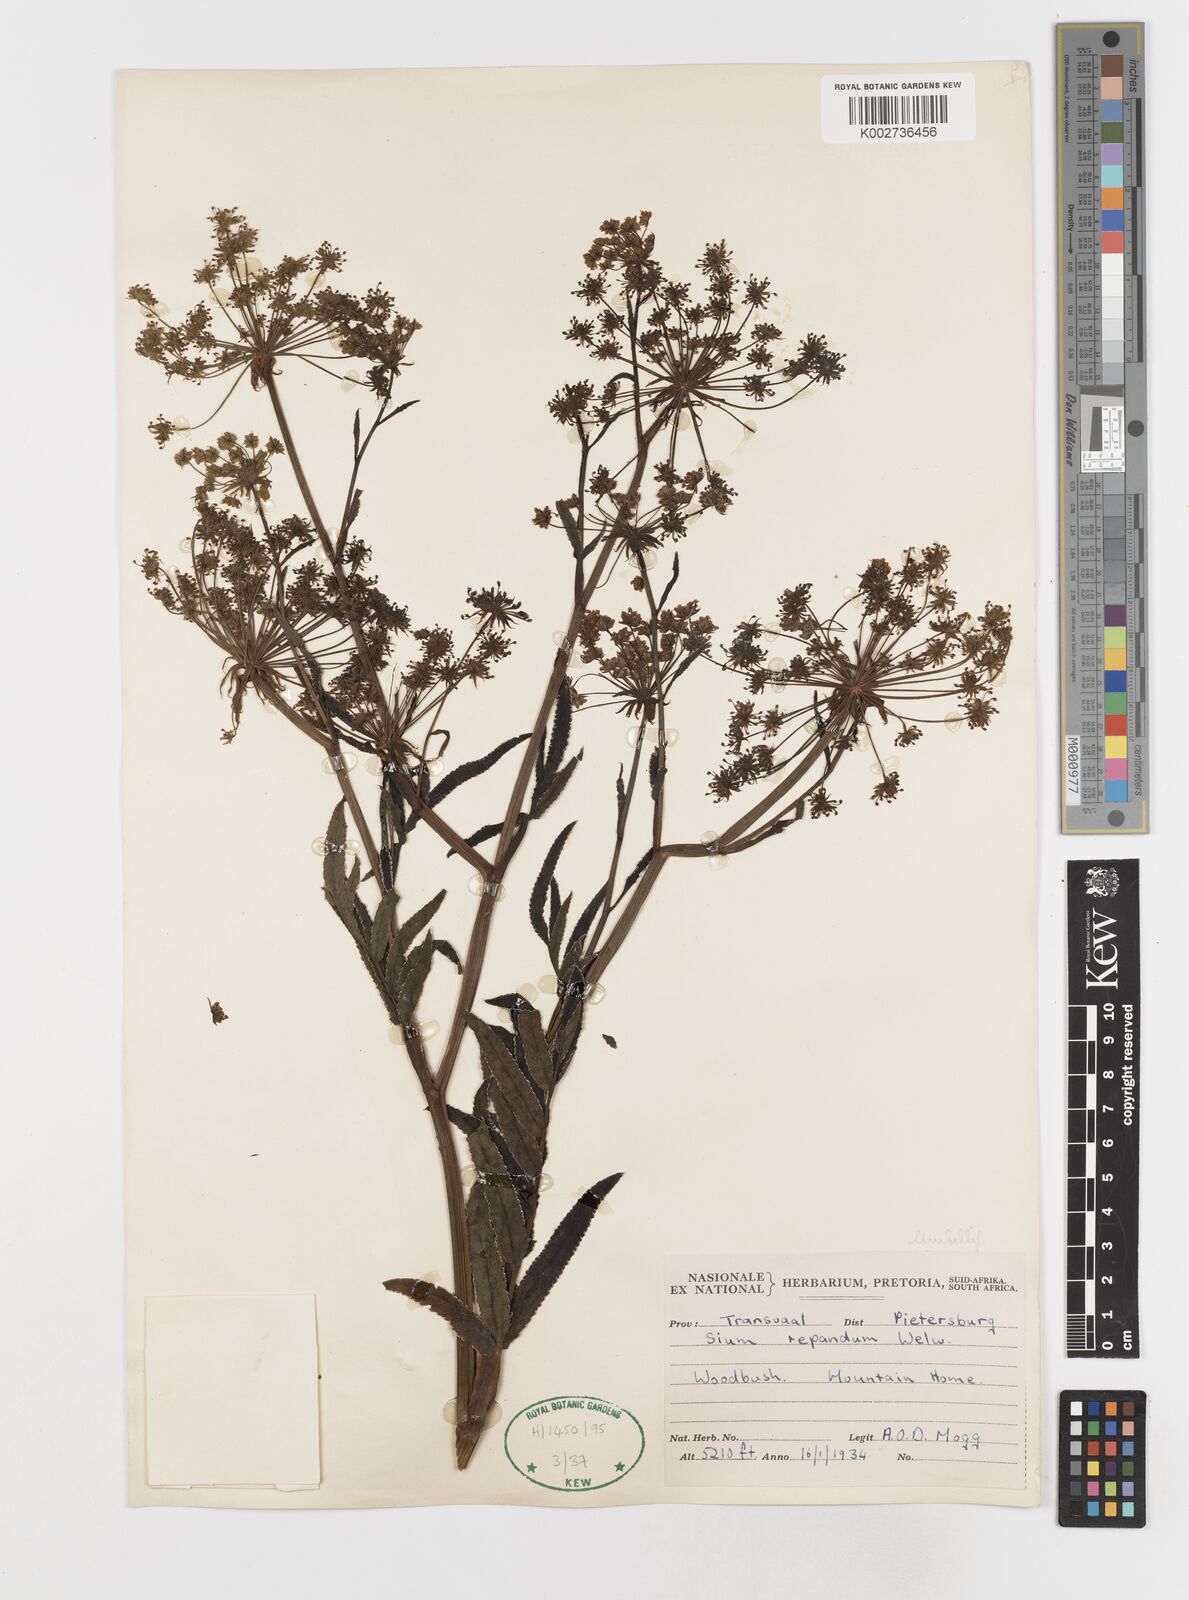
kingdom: Plantae
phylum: Tracheophyta
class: Magnoliopsida
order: Apiales
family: Apiaceae
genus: Berula
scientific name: Berula repanda
